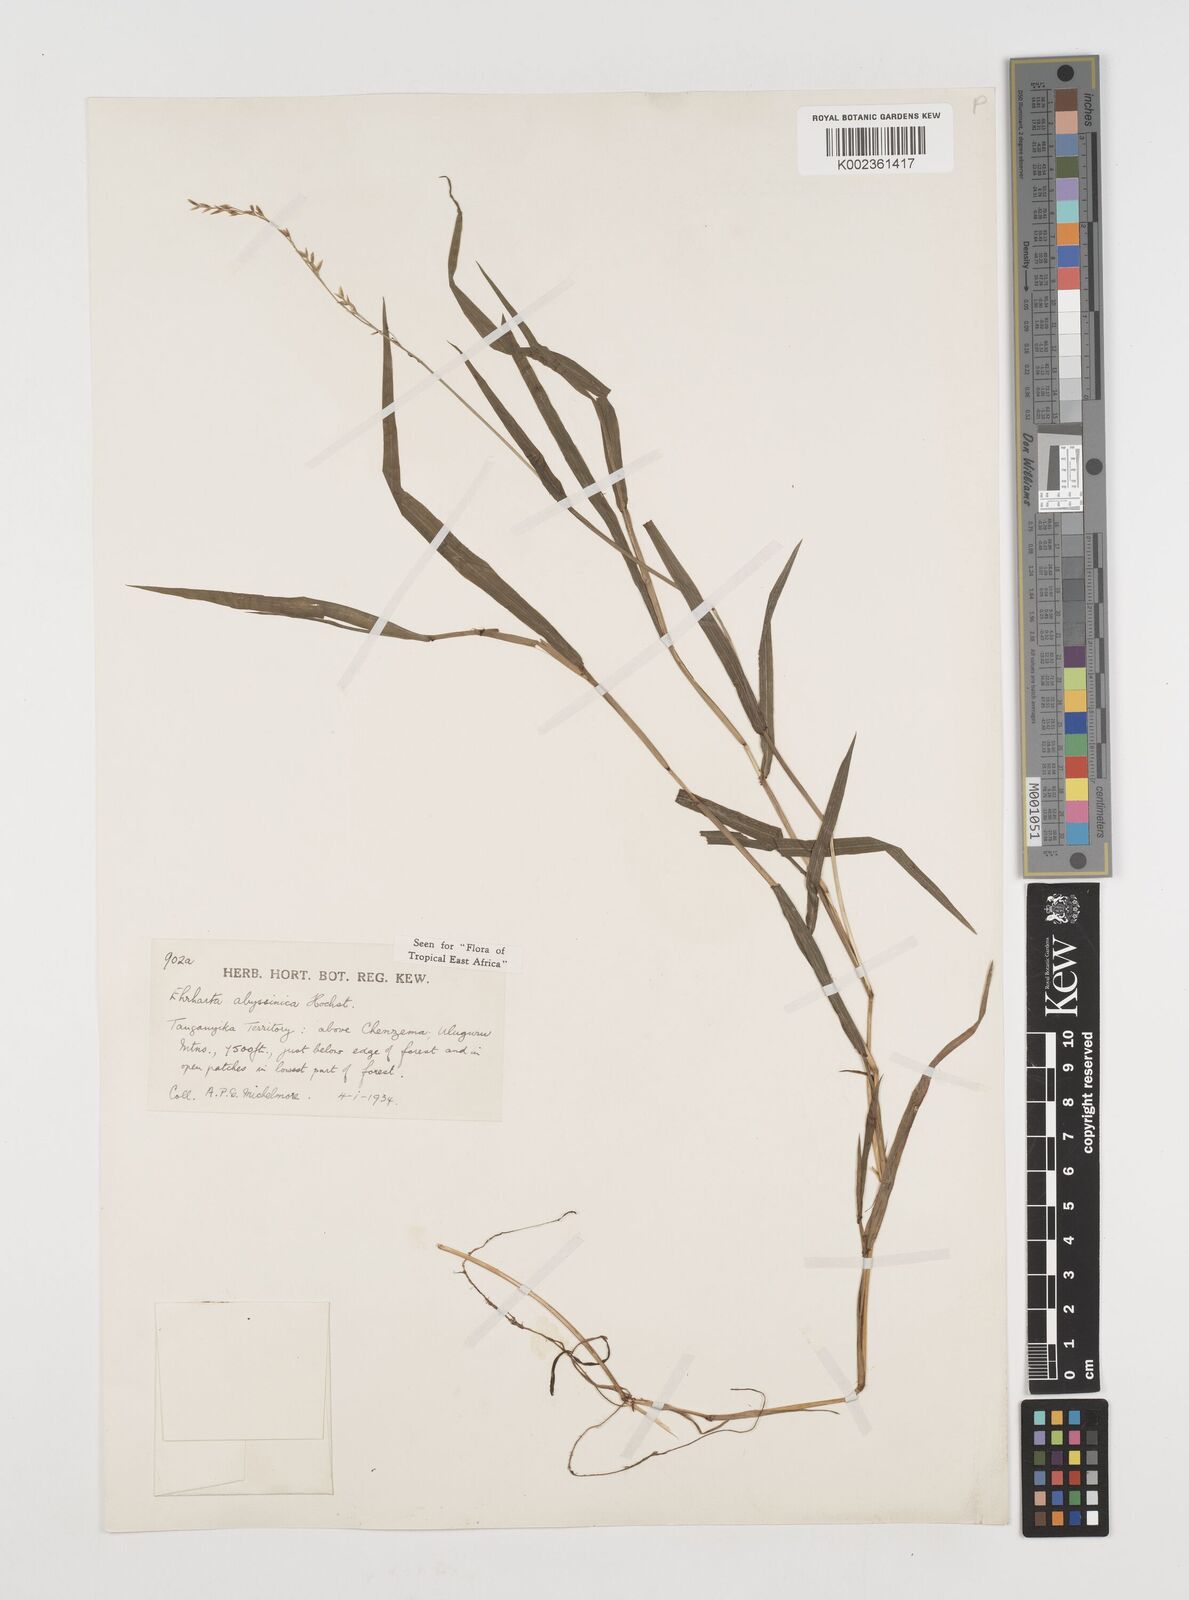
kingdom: Plantae
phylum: Tracheophyta
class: Liliopsida
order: Poales
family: Poaceae
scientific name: Poaceae
